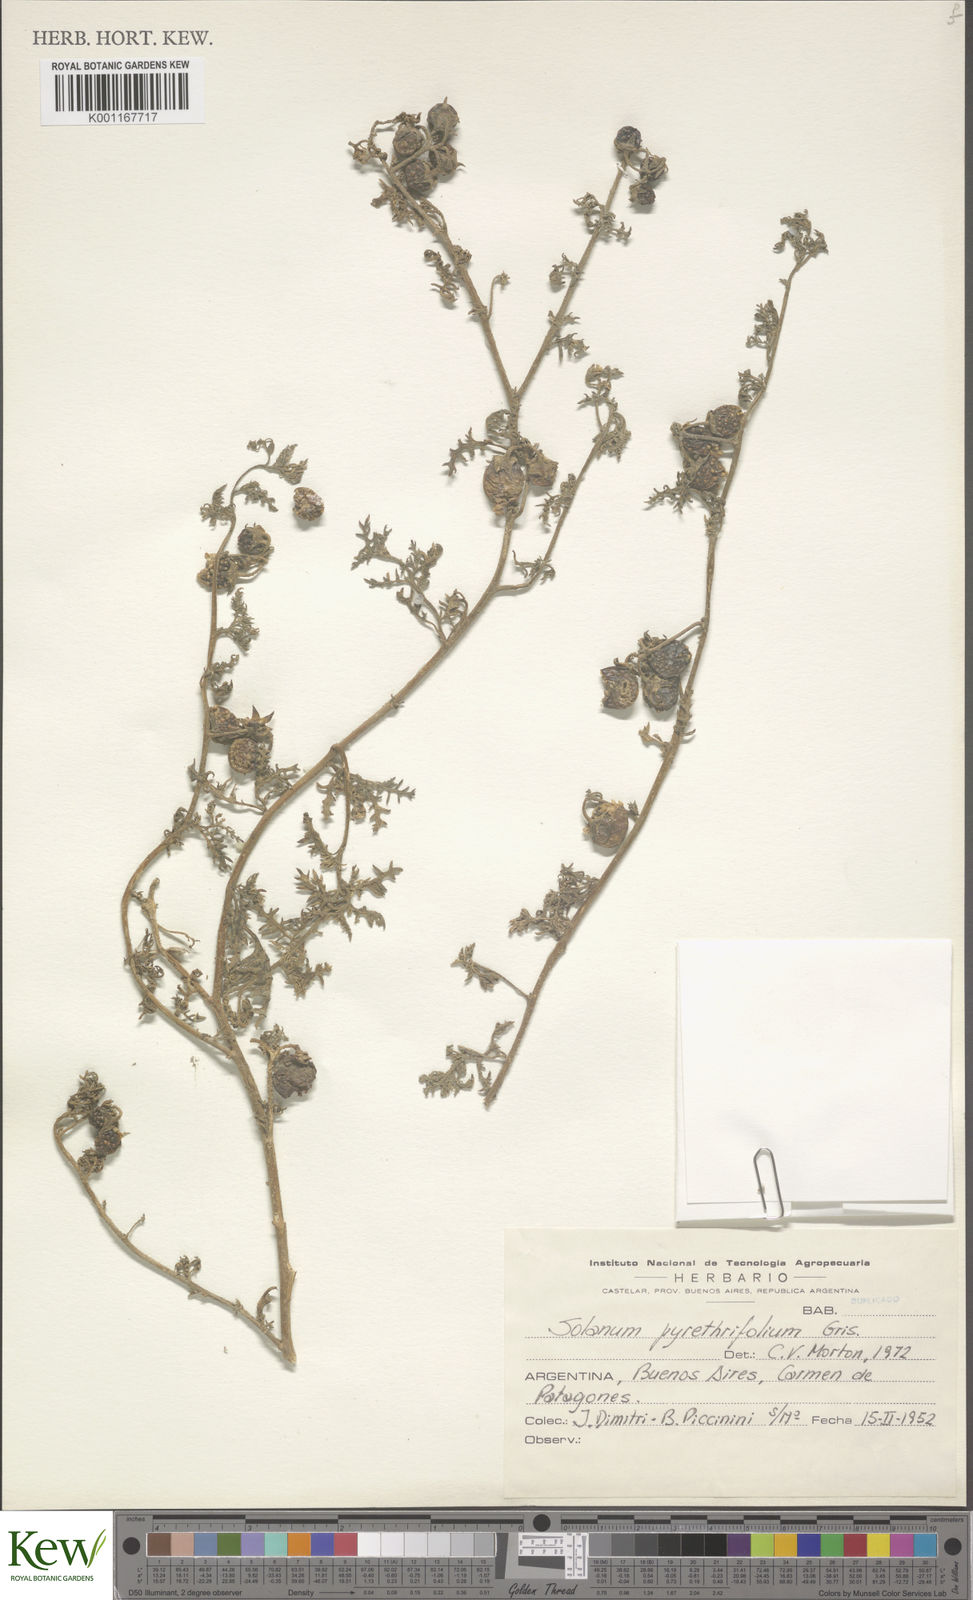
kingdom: Plantae
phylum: Tracheophyta
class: Magnoliopsida
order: Solanales
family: Solanaceae
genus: Solanum
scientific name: Solanum triflorum
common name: Small nightshade
